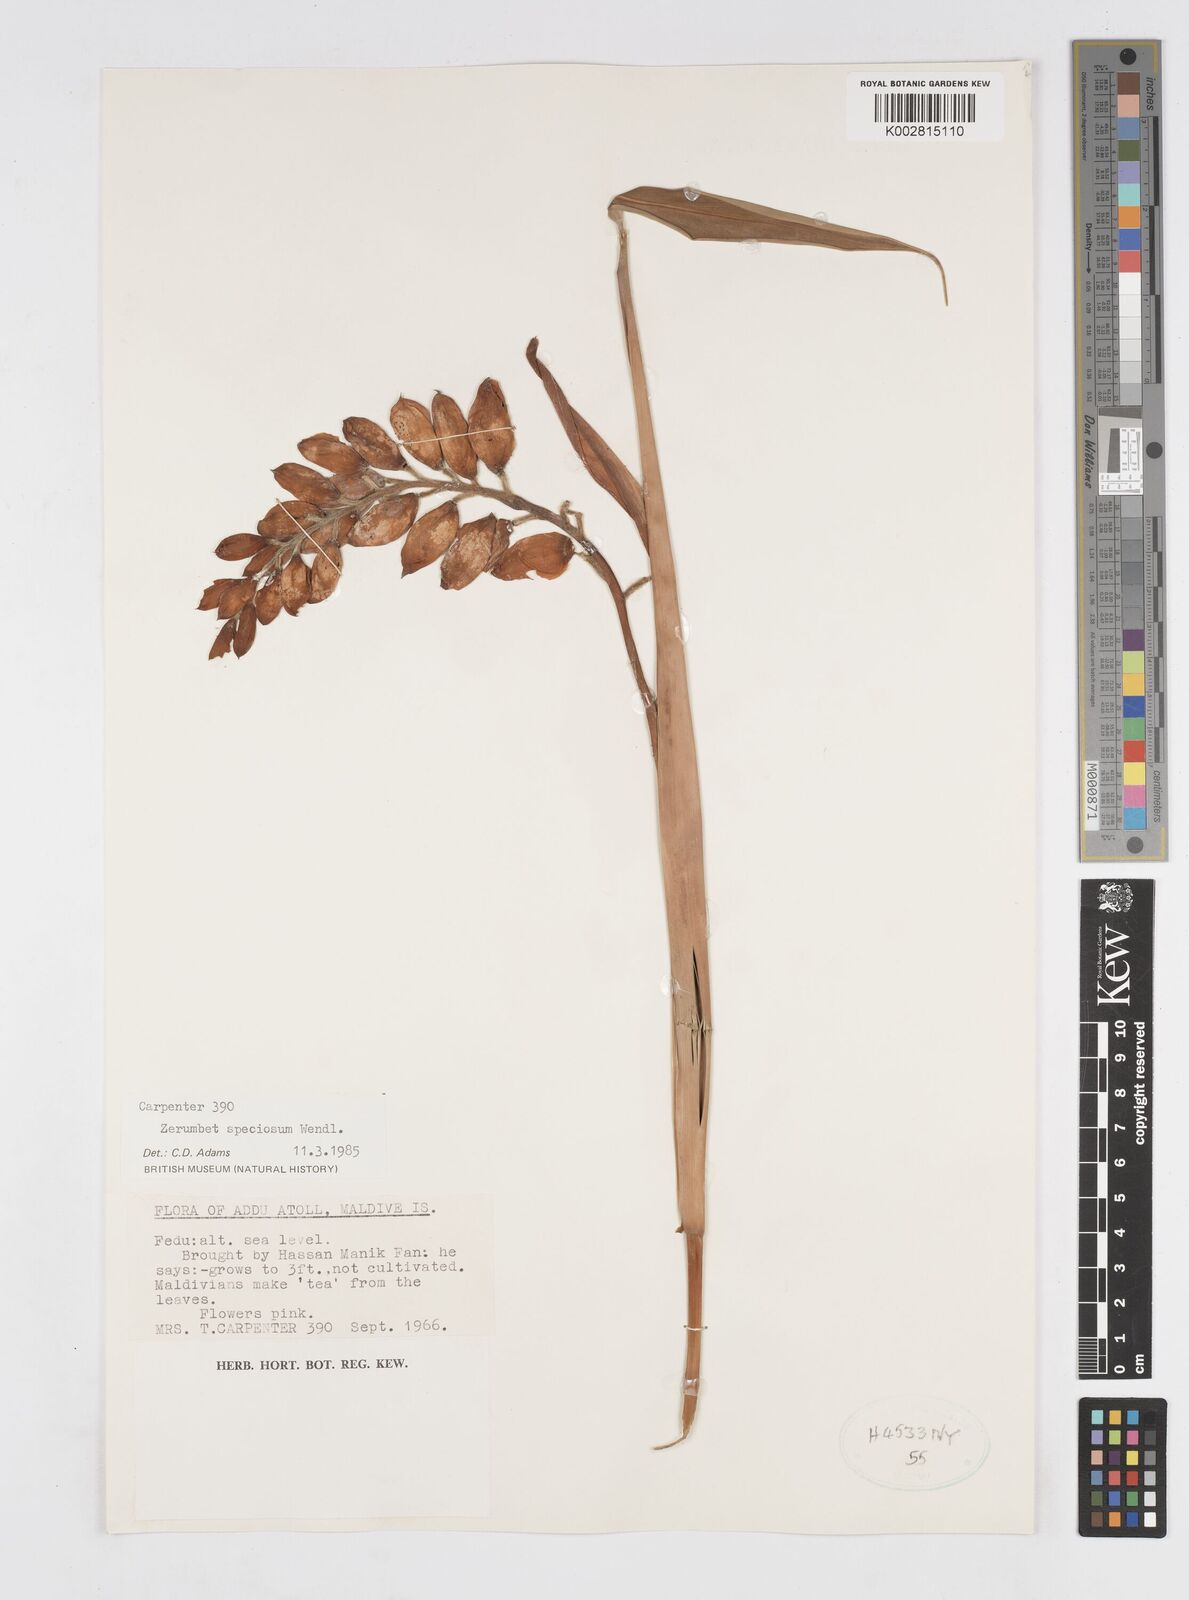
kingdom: Plantae
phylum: Tracheophyta
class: Liliopsida
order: Zingiberales
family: Zingiberaceae
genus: Alpinia
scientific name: Alpinia zerumbet
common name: Shellplant
